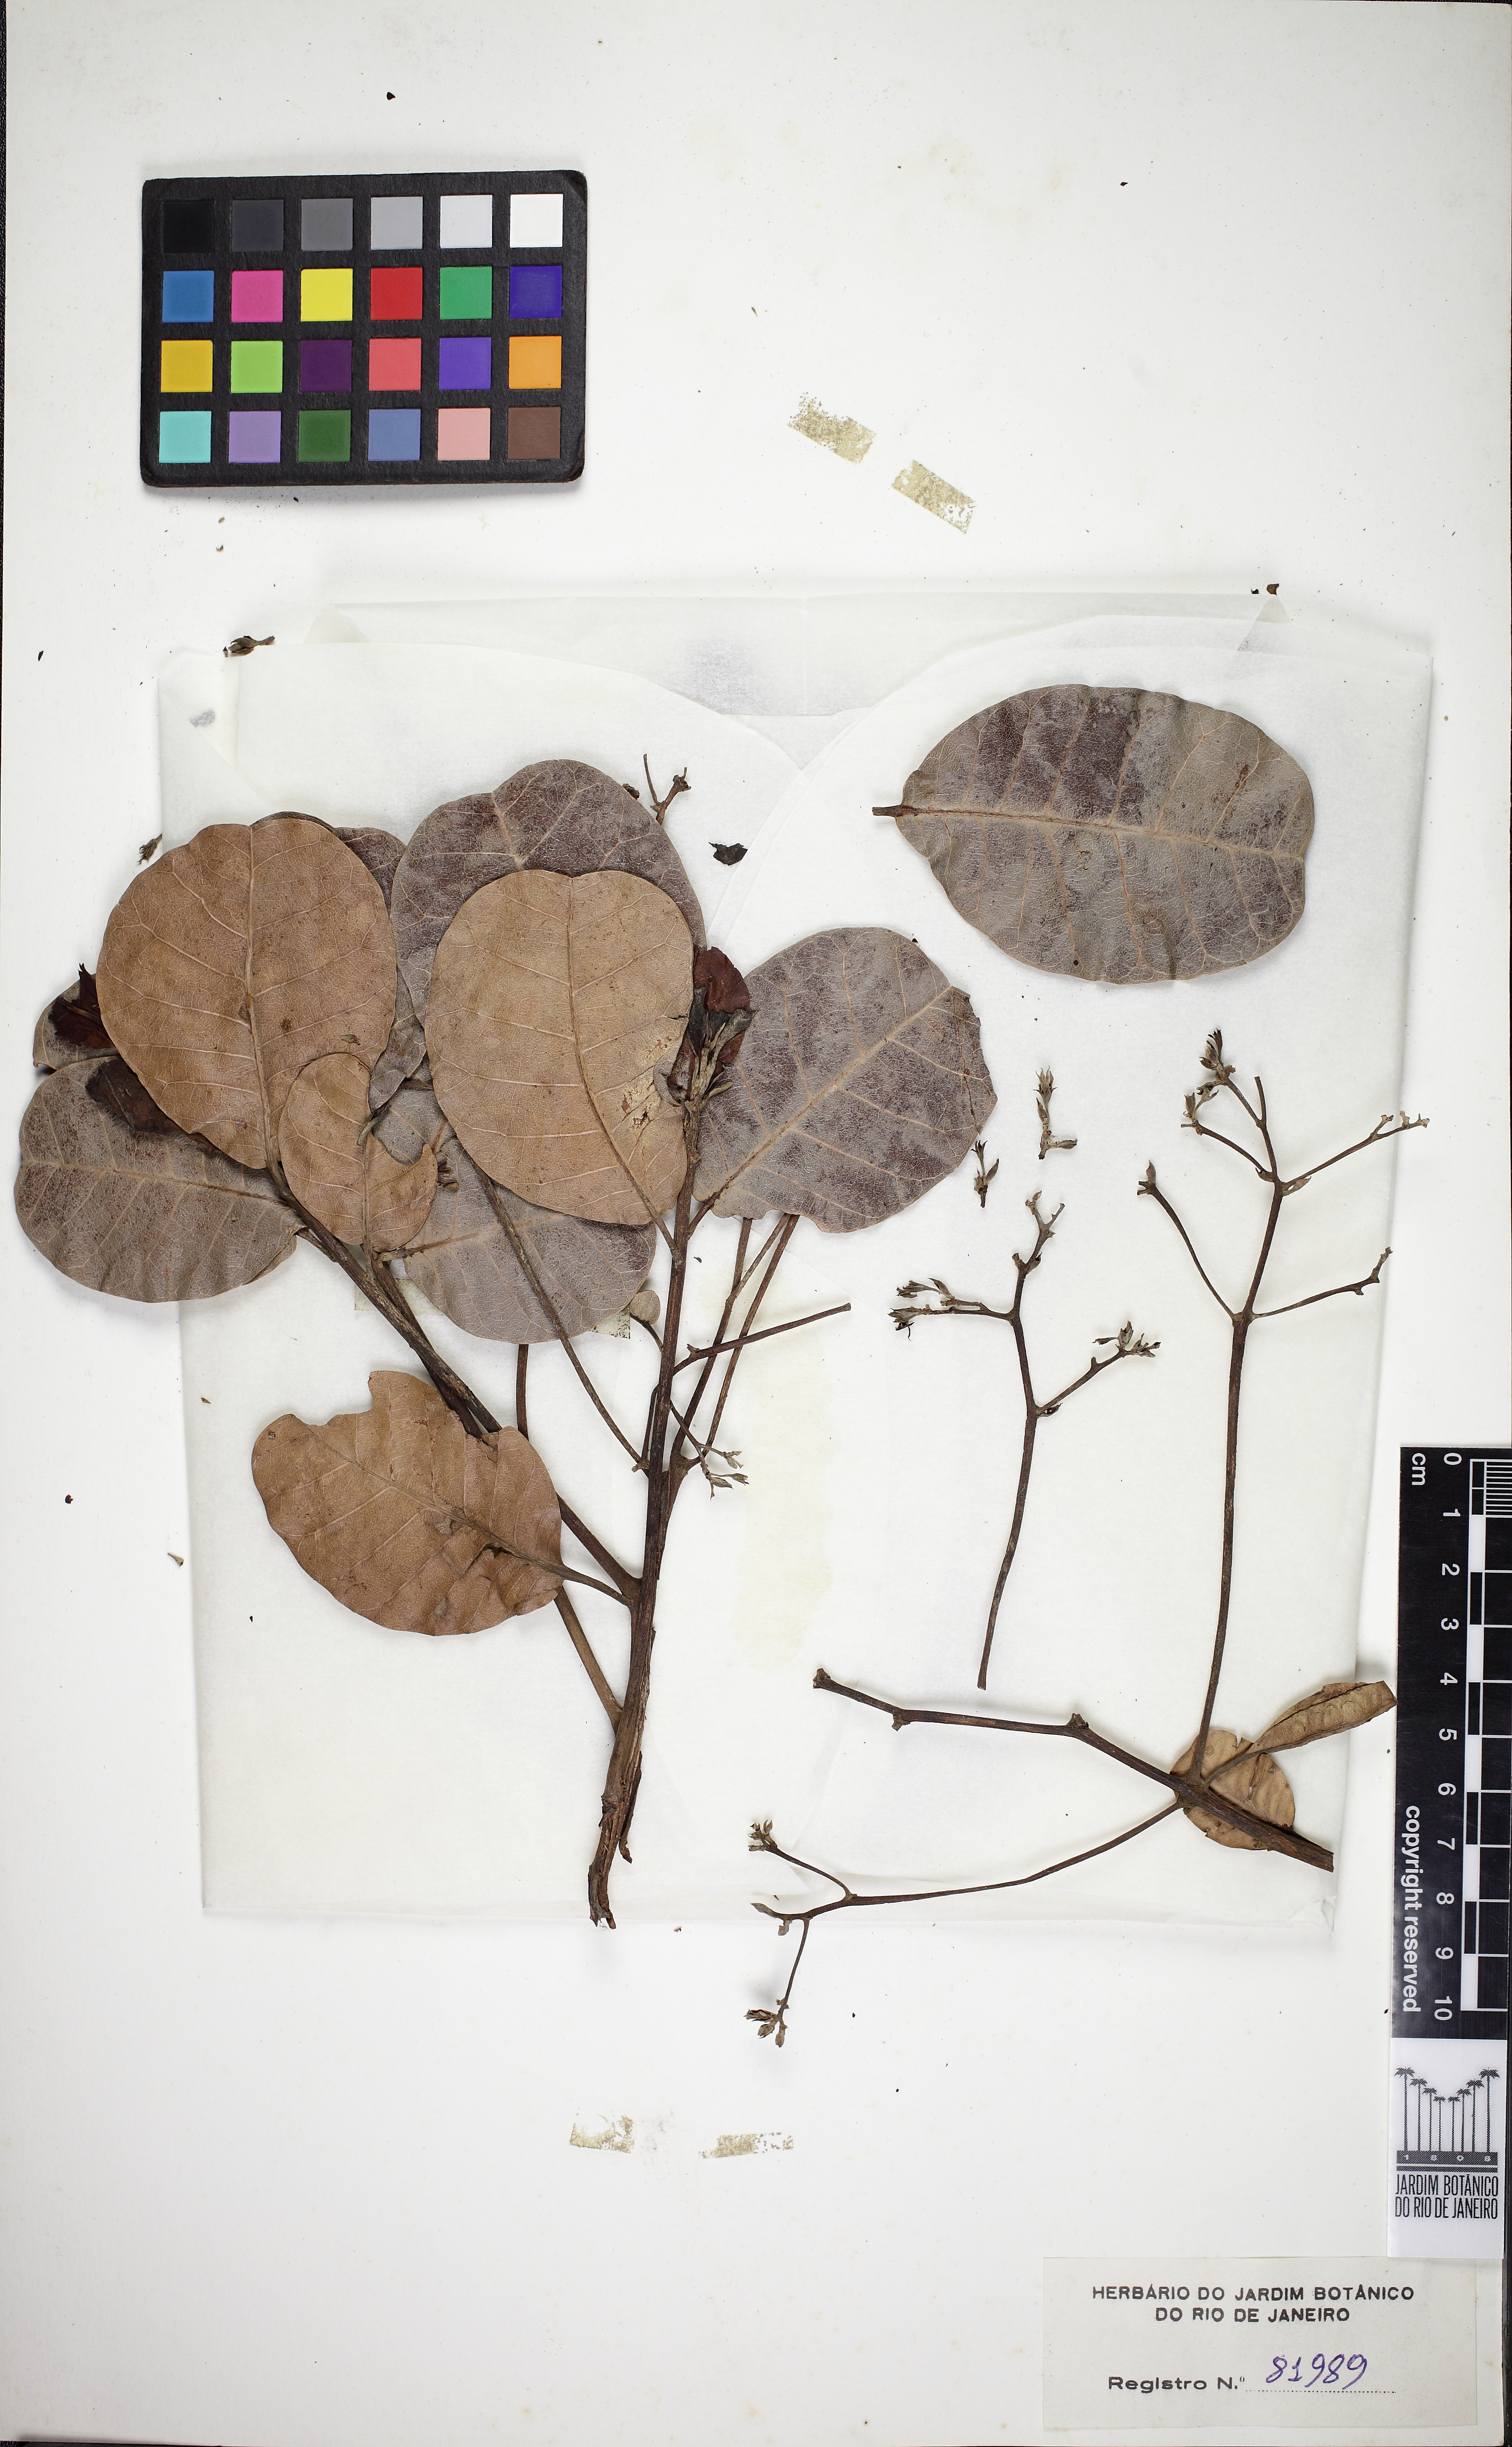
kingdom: Plantae
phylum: Tracheophyta
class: Magnoliopsida
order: Sapindales
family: Anacardiaceae
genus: Anacardium
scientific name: Anacardium occidentale
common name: Cashew
